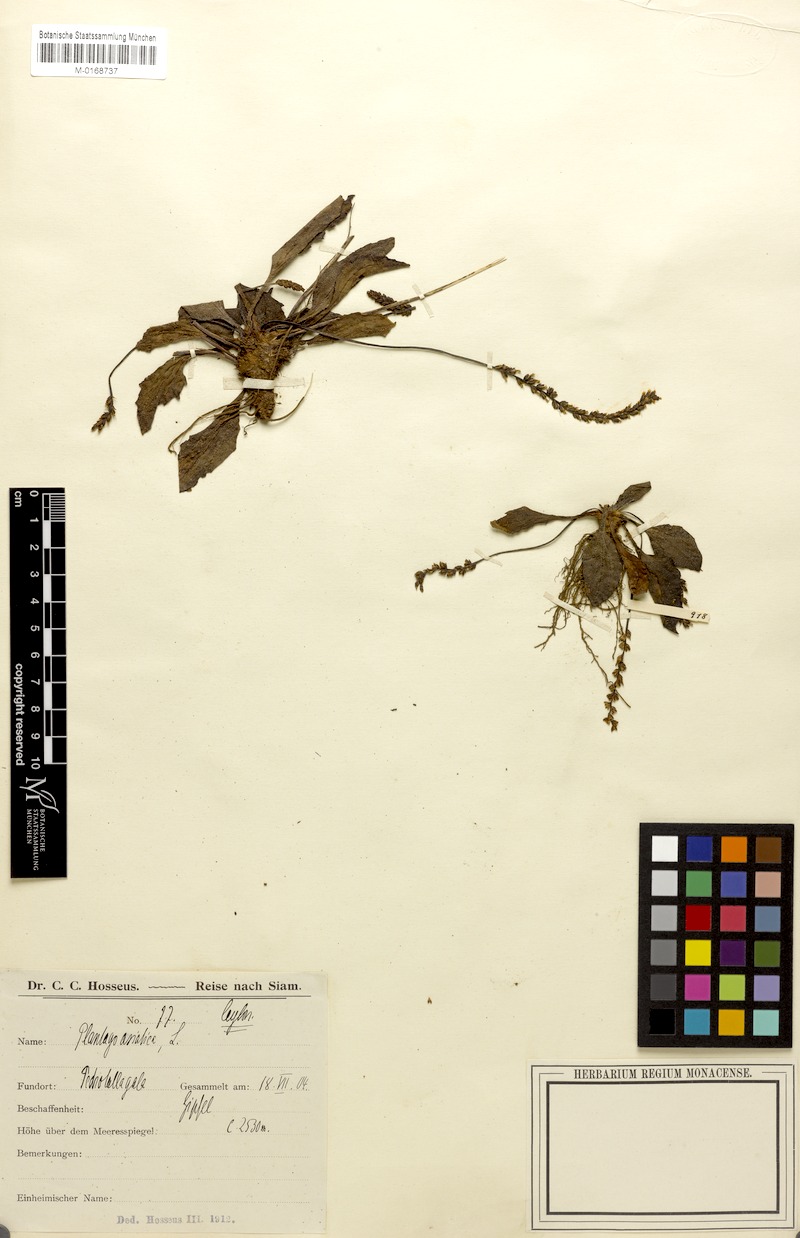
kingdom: Plantae
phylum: Tracheophyta
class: Magnoliopsida
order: Lamiales
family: Plantaginaceae
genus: Plantago
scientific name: Plantago sinaica
